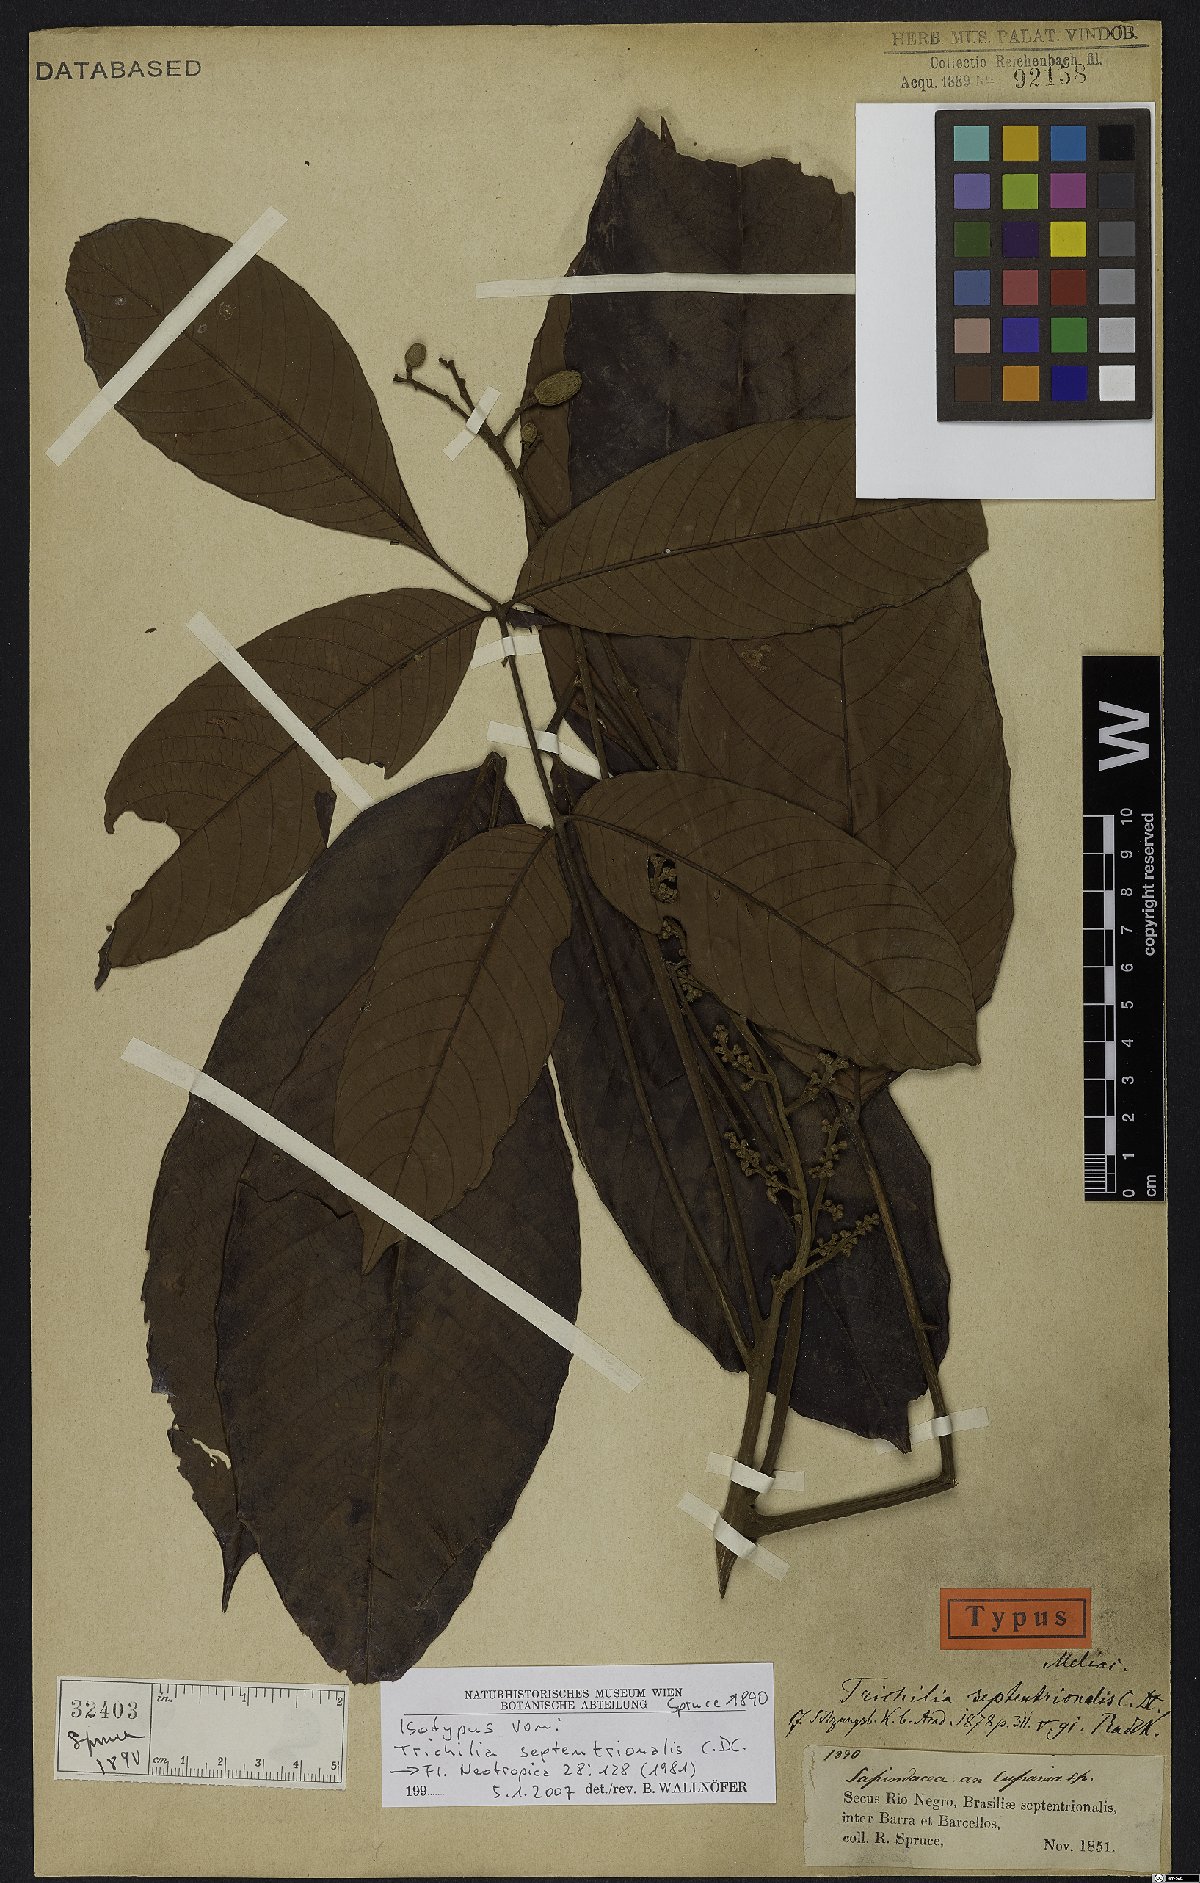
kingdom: Plantae
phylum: Tracheophyta
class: Magnoliopsida
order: Sapindales
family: Meliaceae
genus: Trichilia
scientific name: Trichilia septentrionalis
